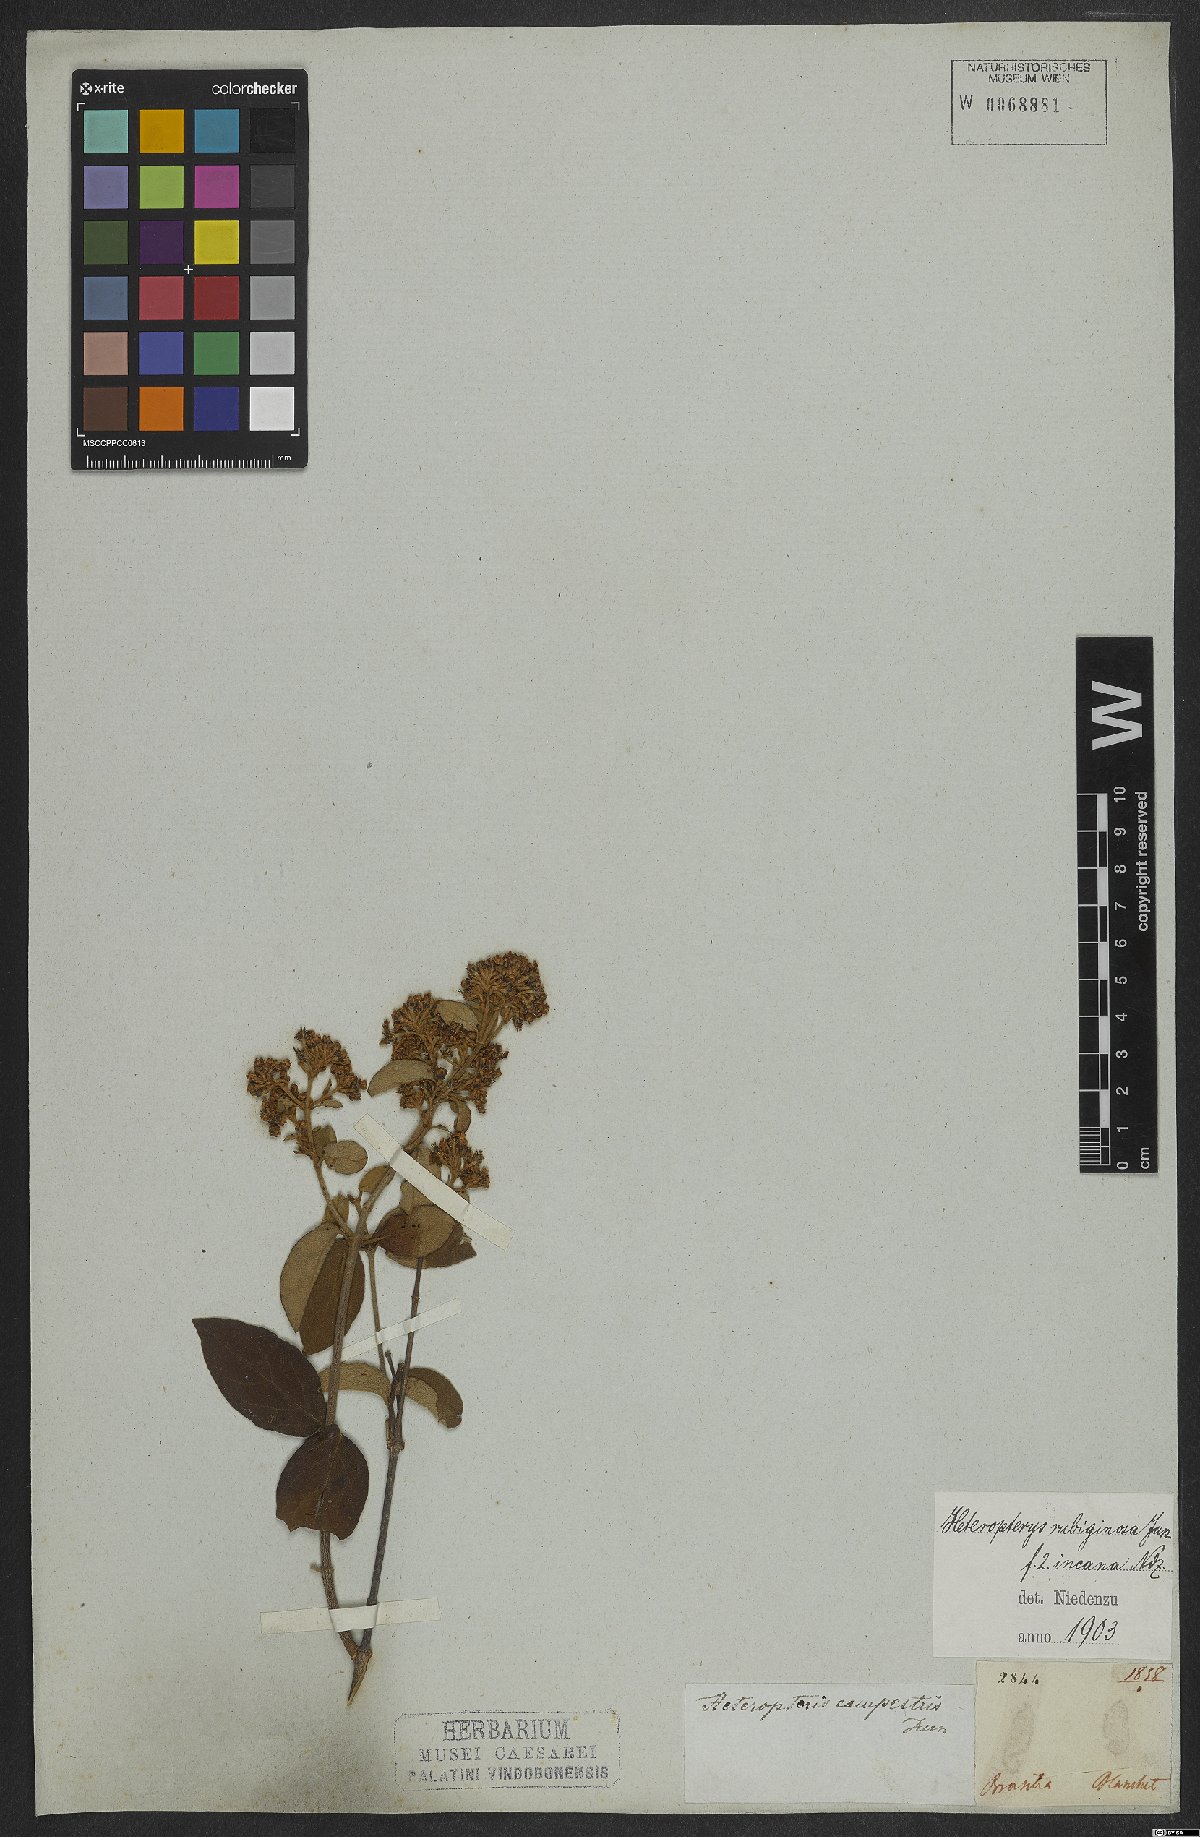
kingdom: Plantae
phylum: Tracheophyta
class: Magnoliopsida
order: Malpighiales
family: Malpighiaceae
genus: Heteropterys
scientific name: Heteropterys rubiginosa
